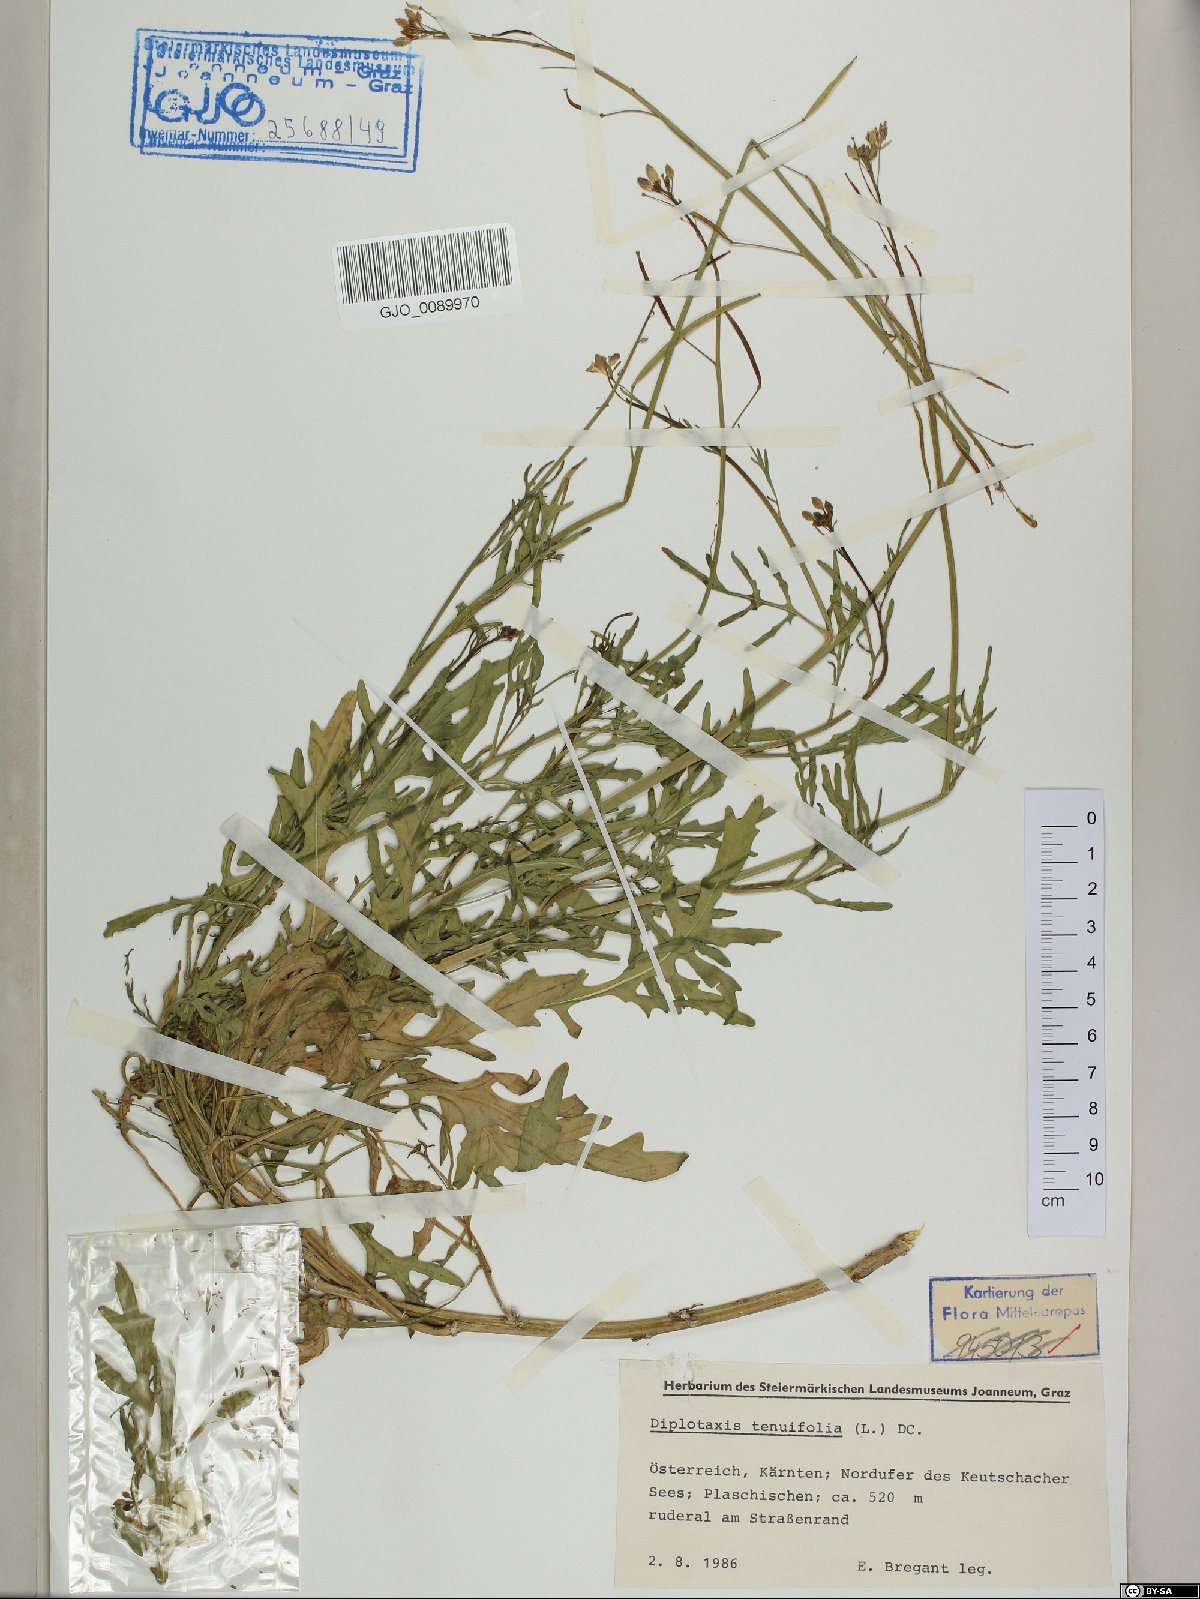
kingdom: Plantae
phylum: Tracheophyta
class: Magnoliopsida
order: Brassicales
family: Brassicaceae
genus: Diplotaxis
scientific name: Diplotaxis tenuifolia
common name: Perennial wall-rocket
